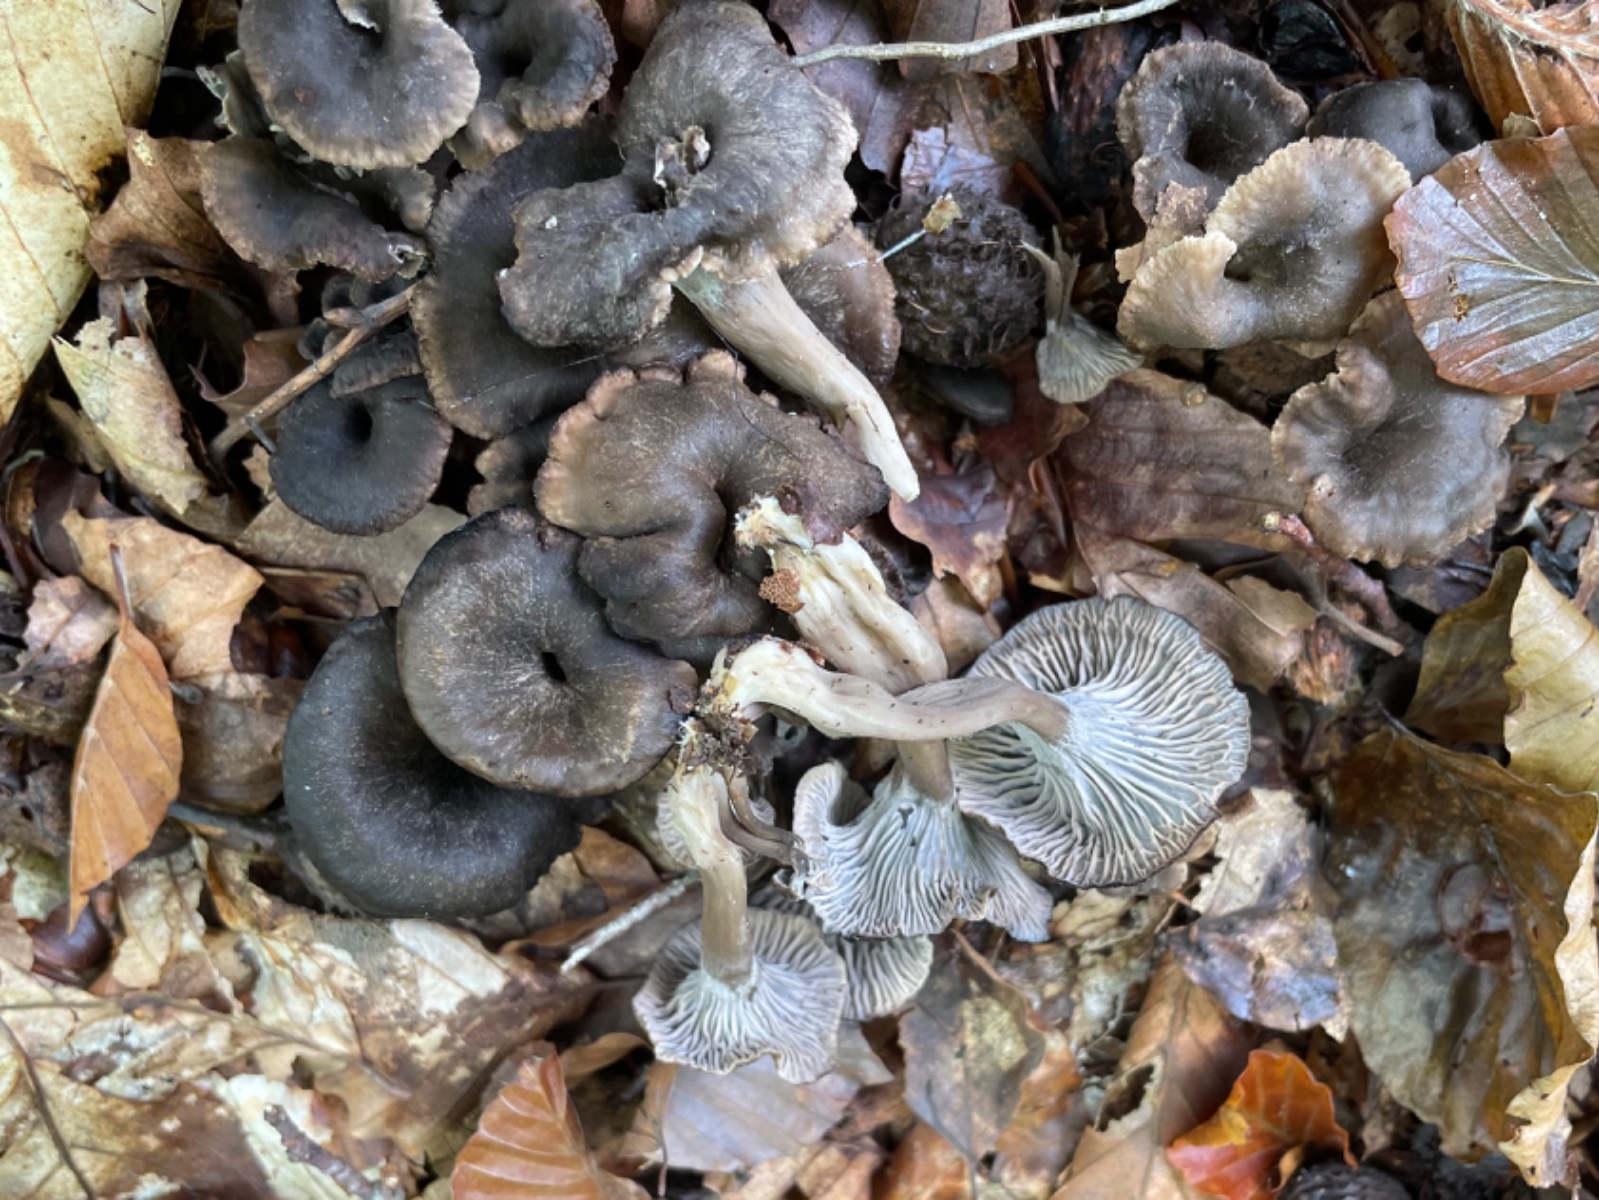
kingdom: Fungi
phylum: Basidiomycota
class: Agaricomycetes
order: Cantharellales
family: Hydnaceae
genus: Cantharellus
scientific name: Cantharellus cinereus
